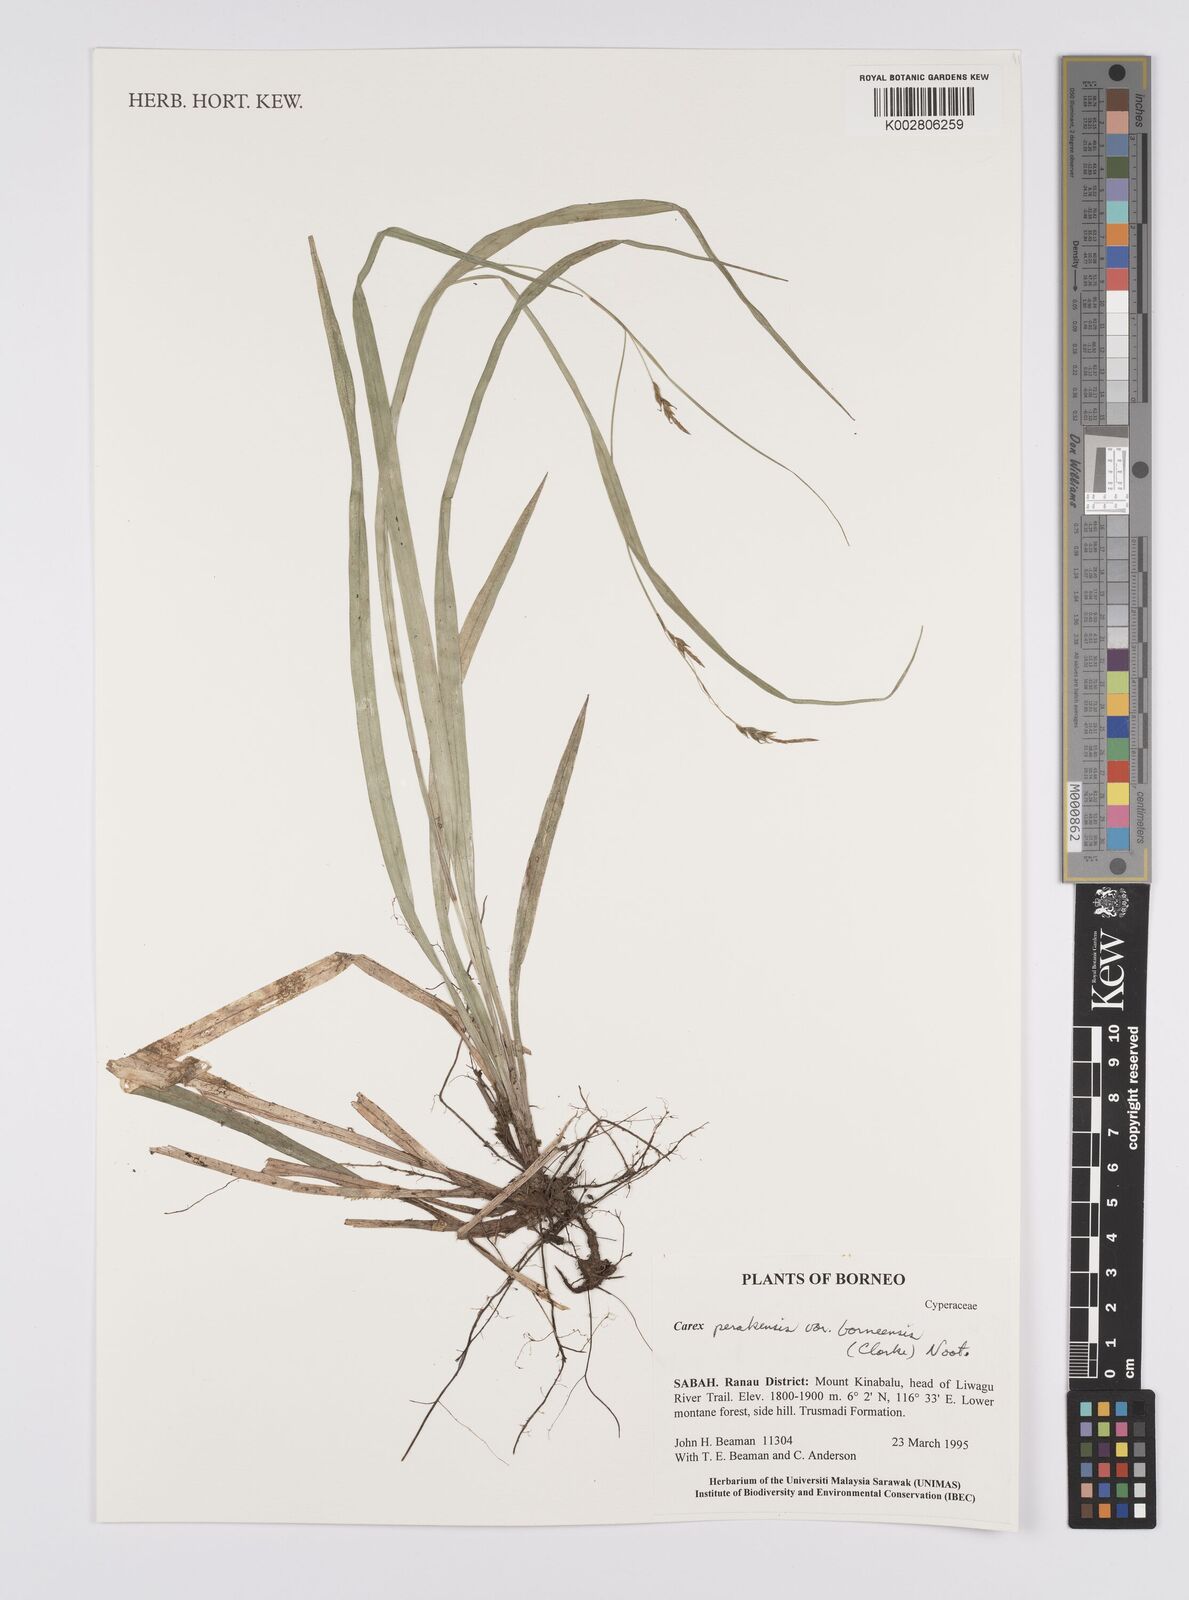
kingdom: Plantae
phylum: Tracheophyta
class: Liliopsida
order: Poales
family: Cyperaceae
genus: Carex
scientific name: Carex perakensis
